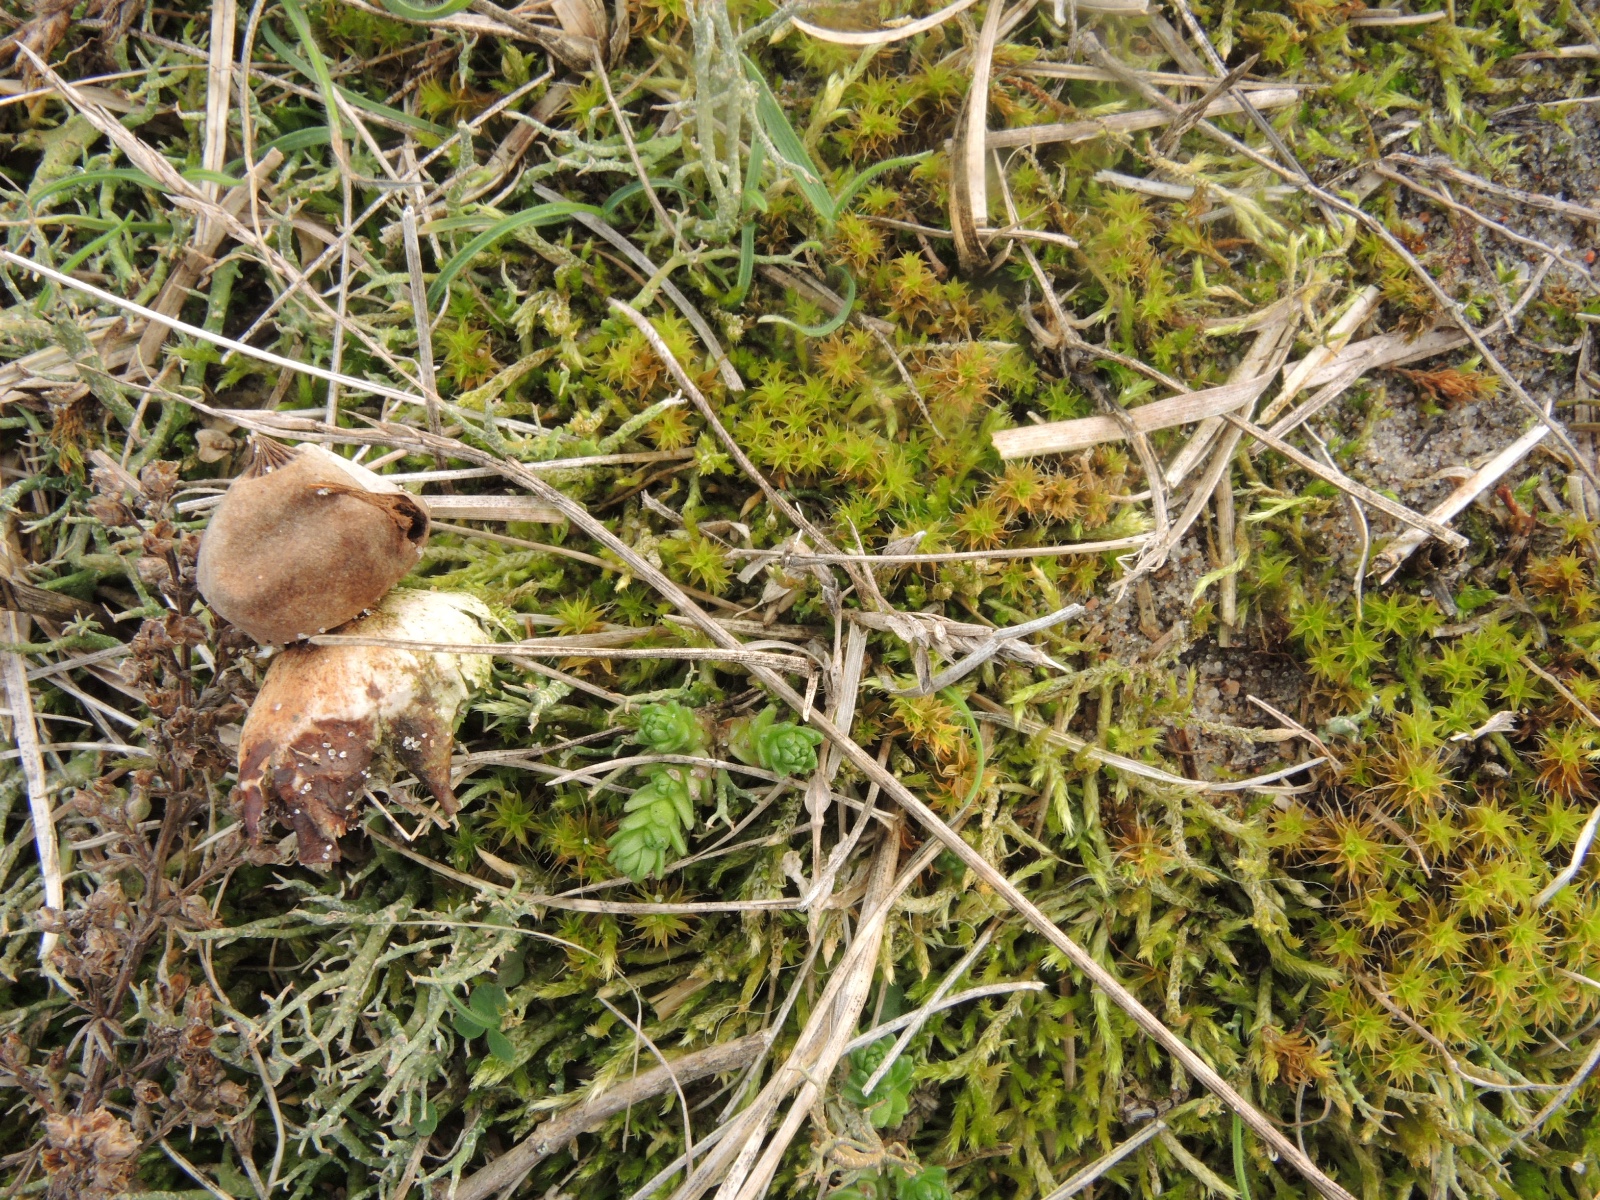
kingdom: Fungi
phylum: Basidiomycota
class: Agaricomycetes
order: Geastrales
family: Geastraceae
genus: Geastrum
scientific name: Geastrum striatum
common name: dværg-stjernebold
